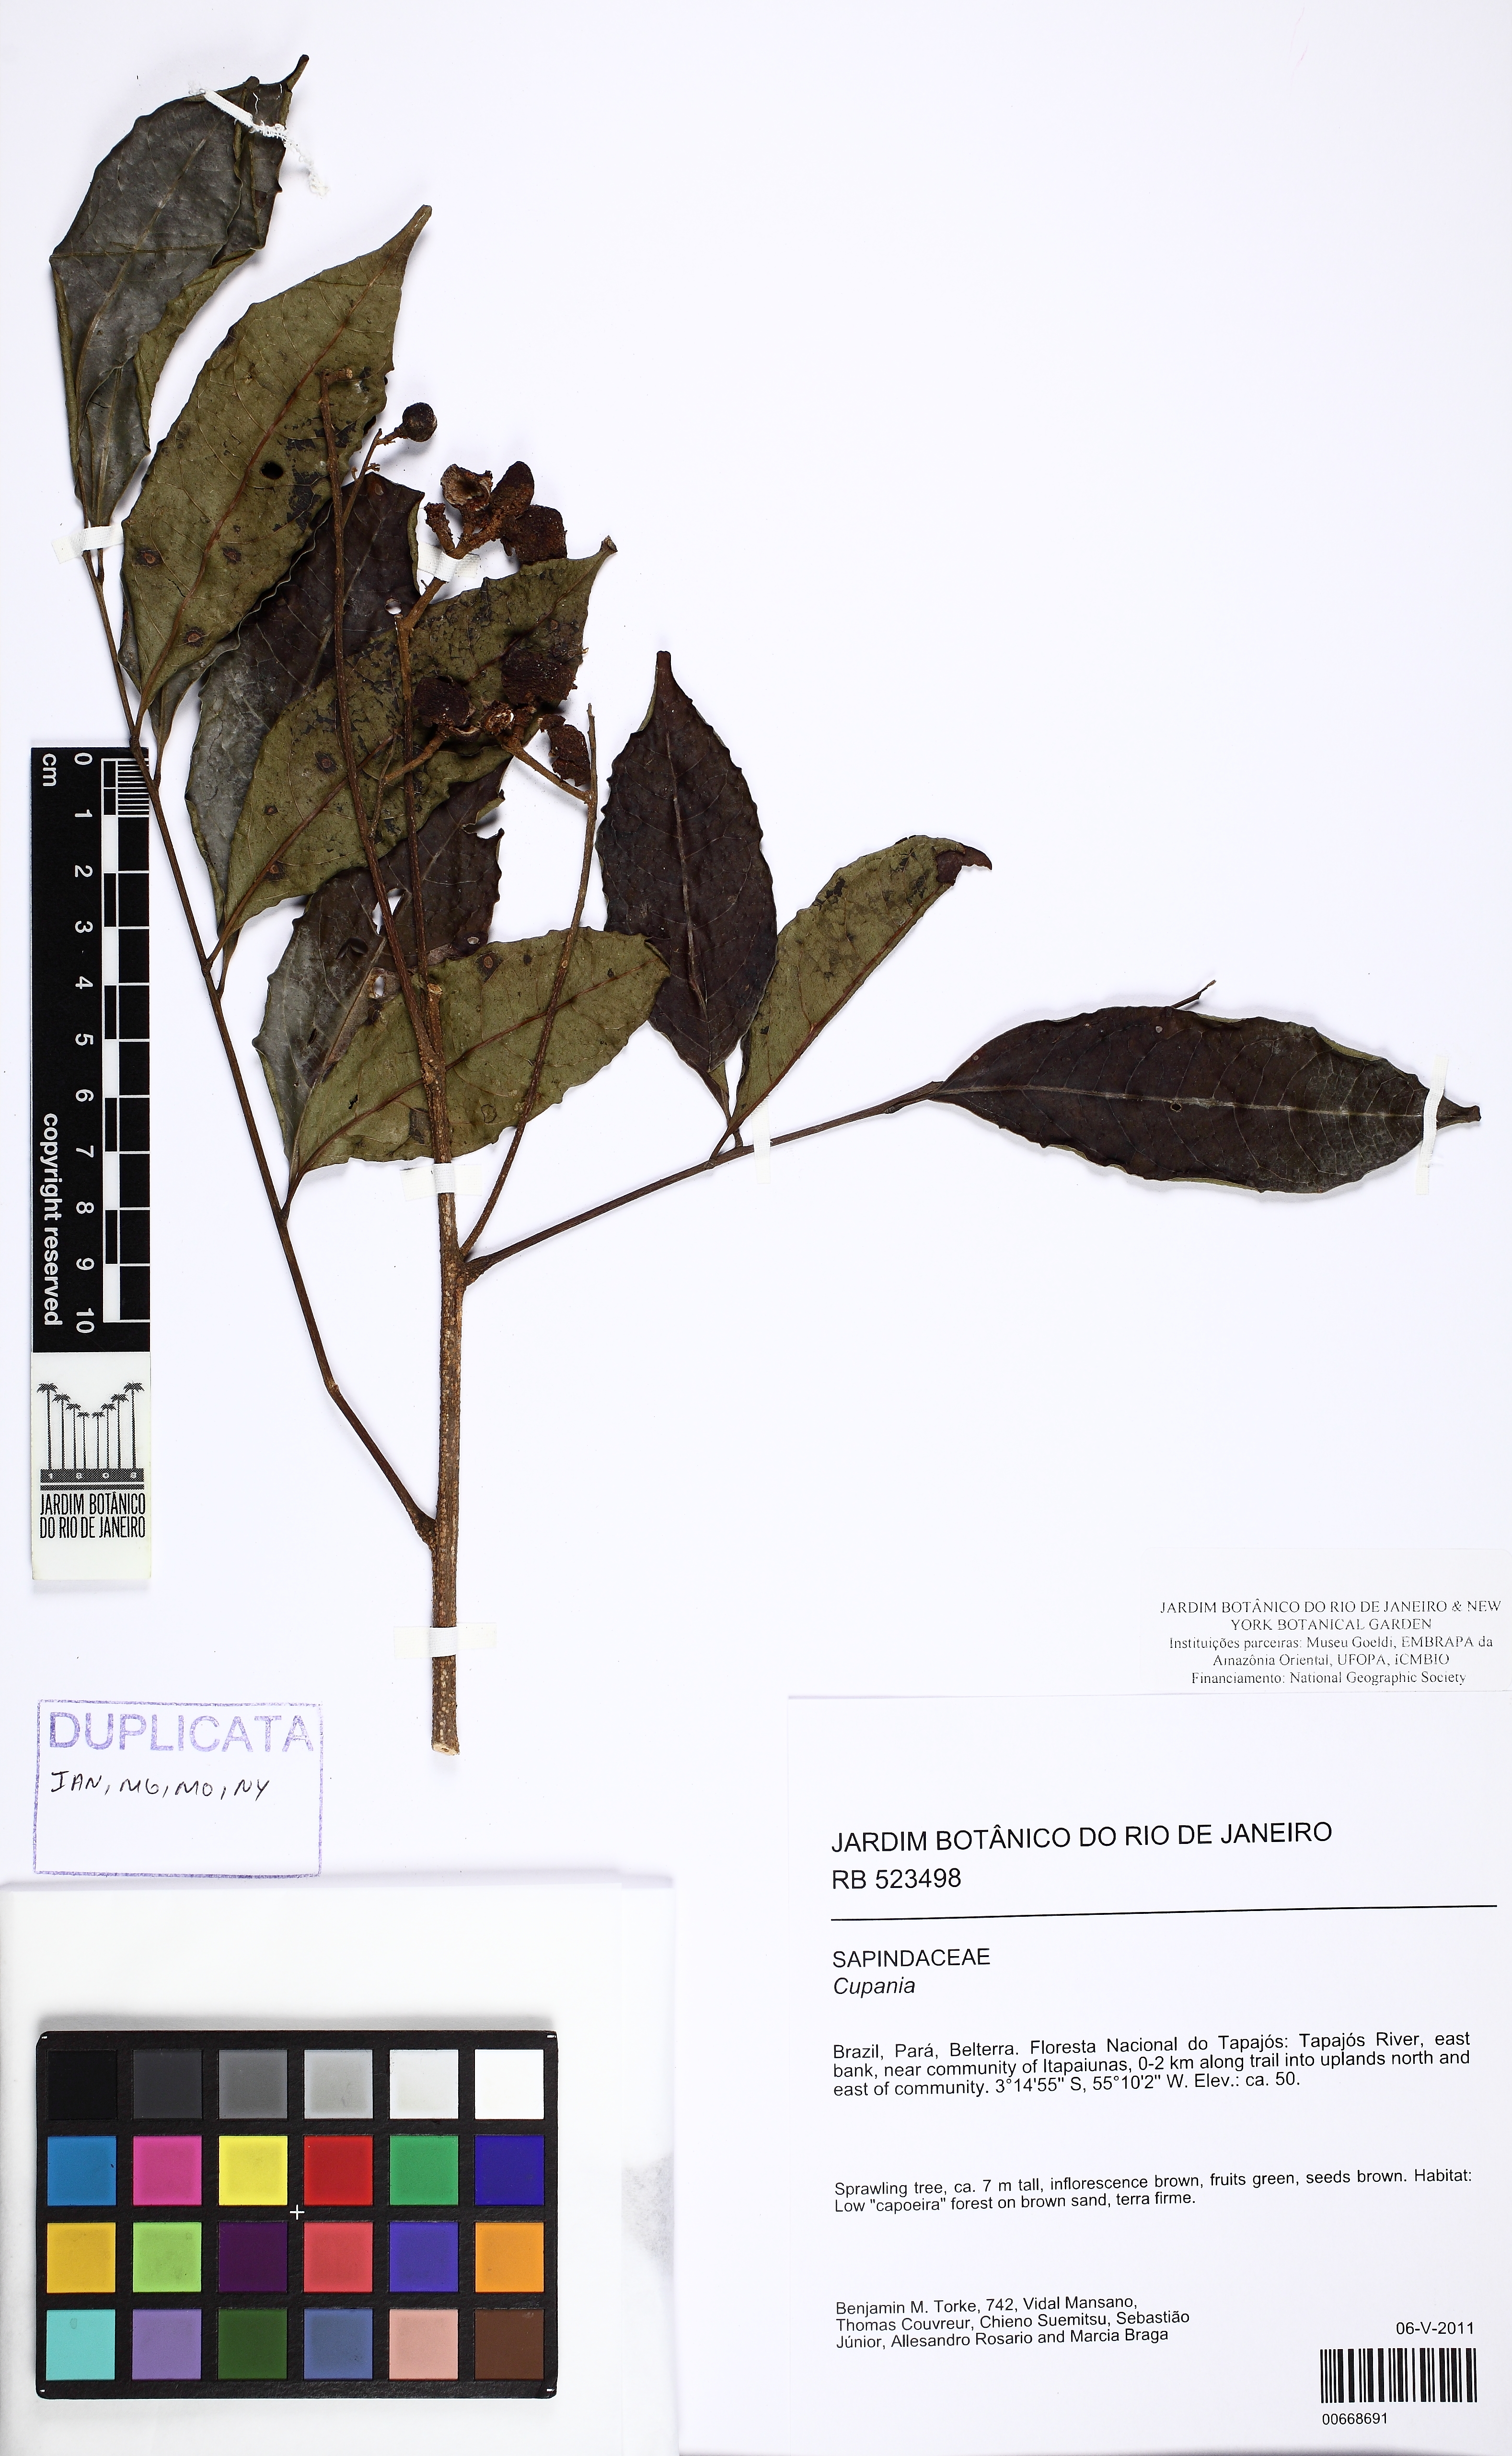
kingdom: Plantae
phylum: Tracheophyta
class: Magnoliopsida
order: Sapindales
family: Sapindaceae
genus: Cupania
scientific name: Cupania
